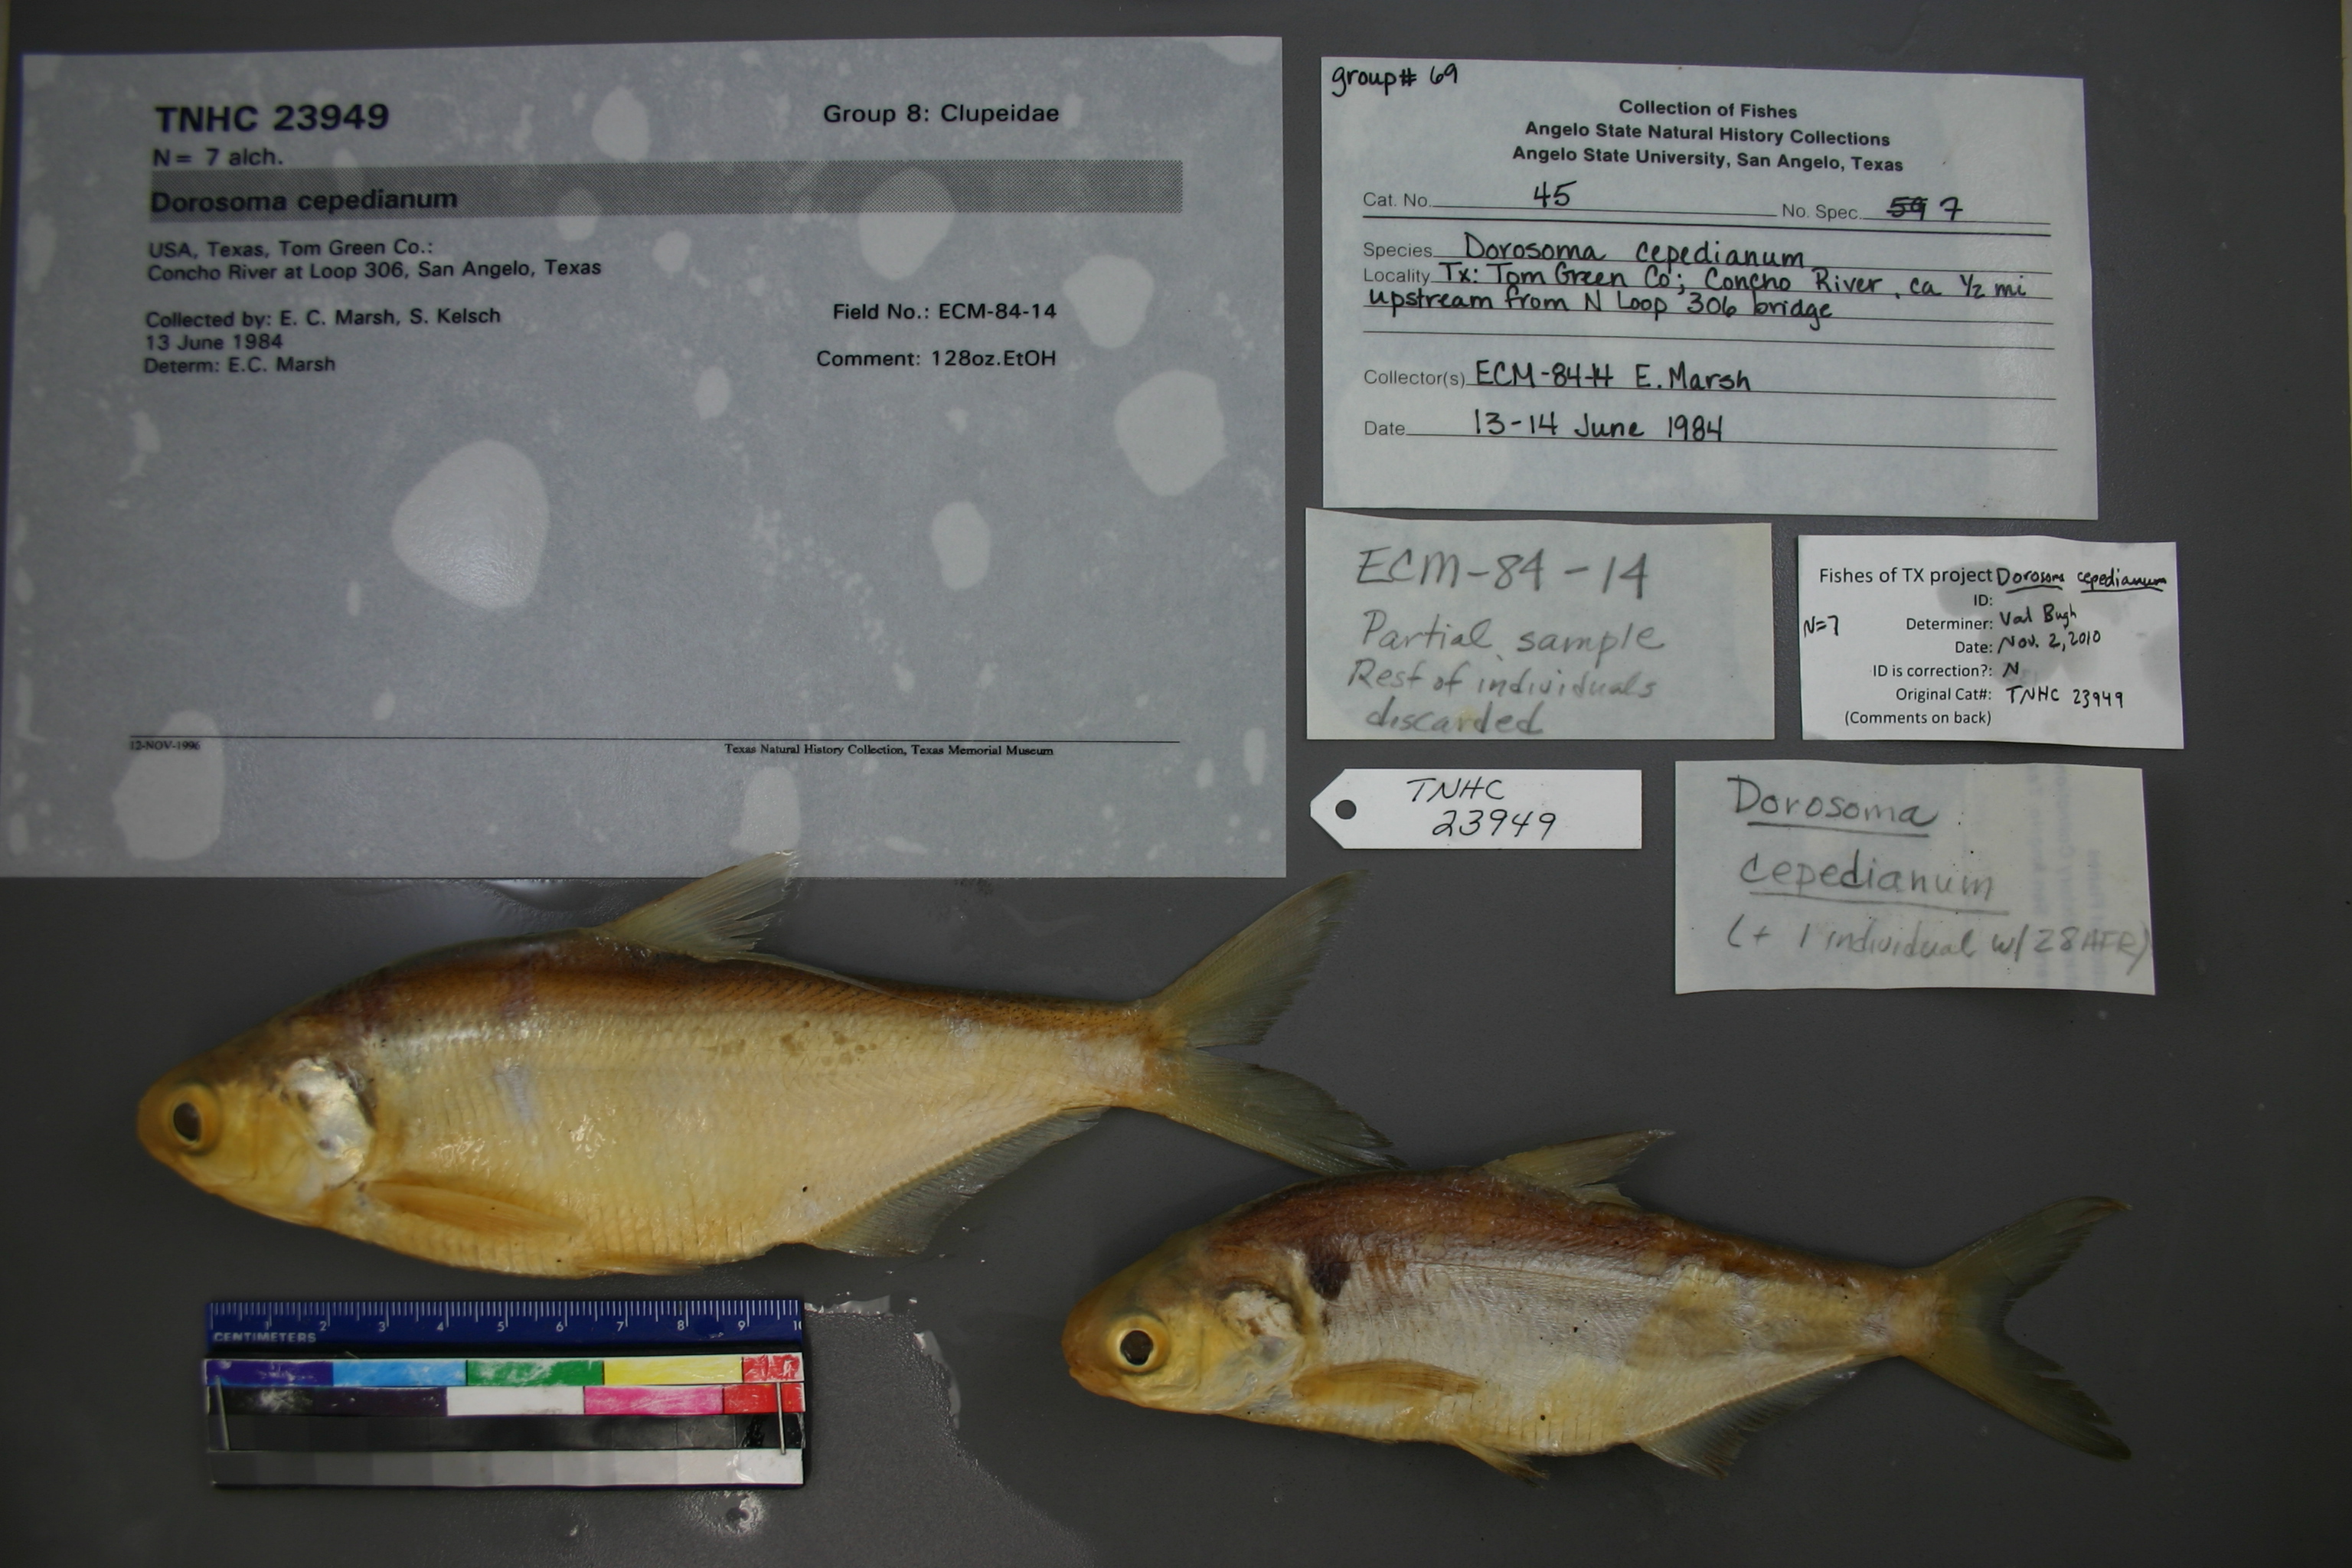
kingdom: Animalia
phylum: Chordata
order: Clupeiformes
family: Clupeidae
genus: Dorosoma
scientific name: Dorosoma cepedianum
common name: Gizzard shad
